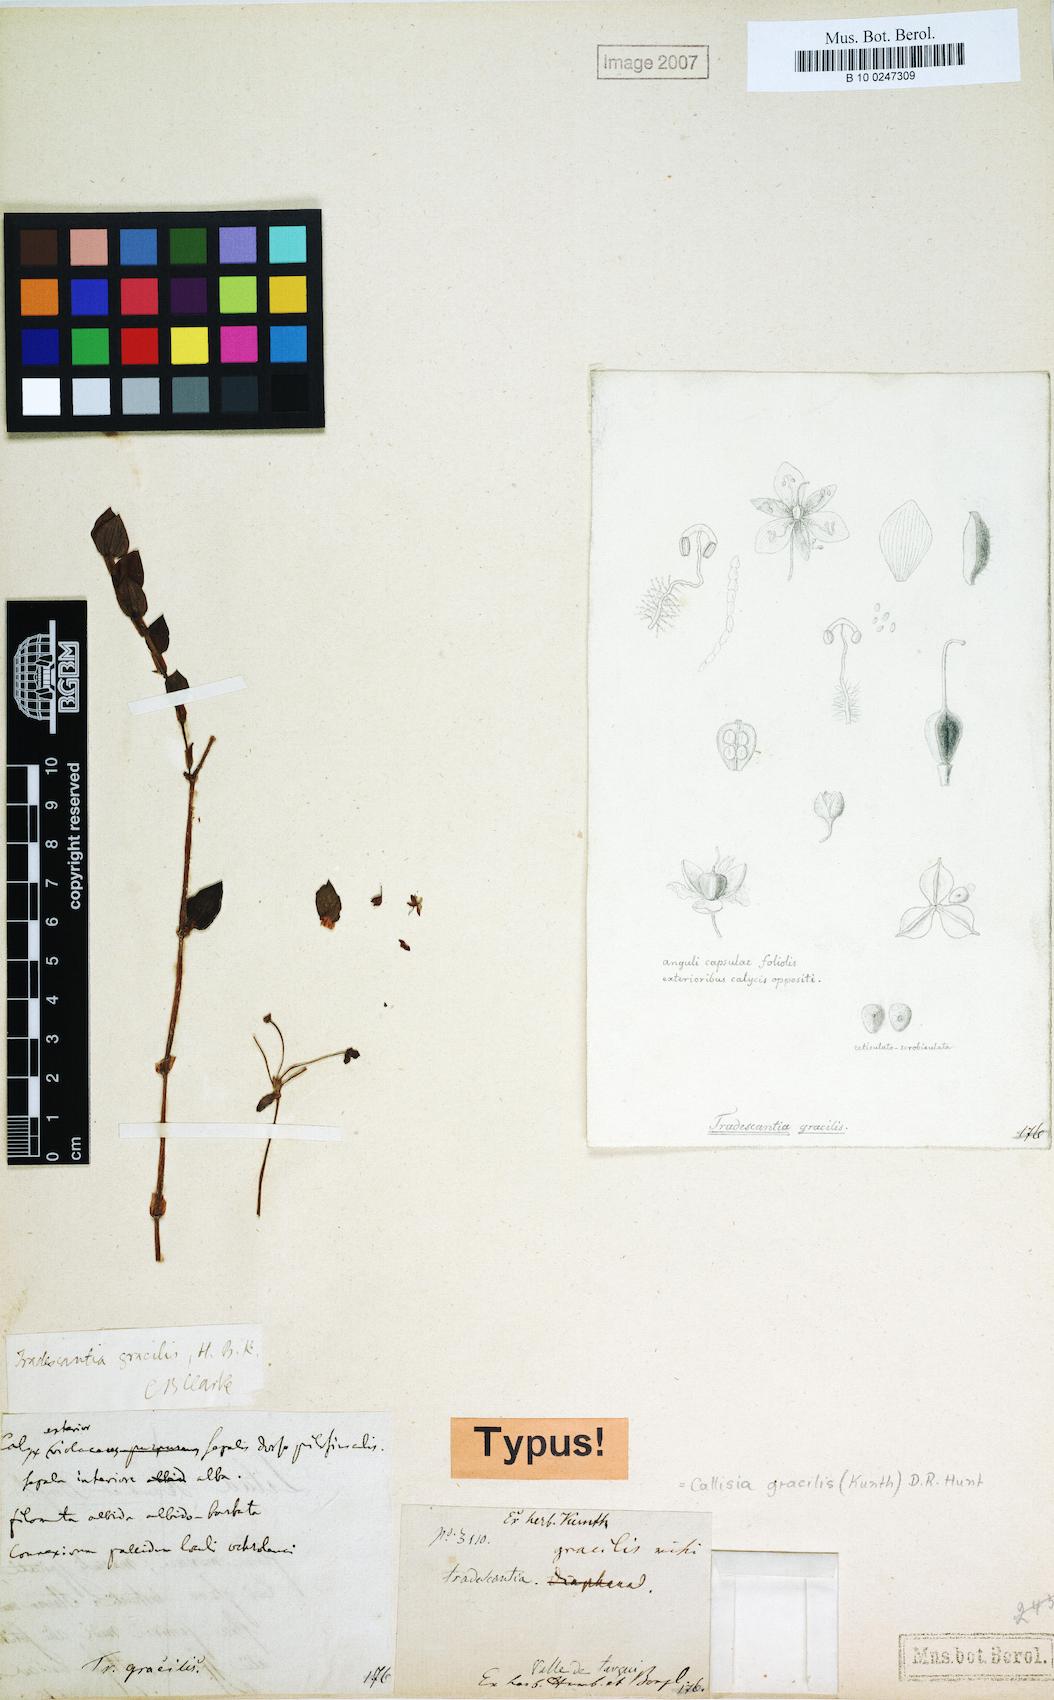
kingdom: Plantae
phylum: Tracheophyta
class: Liliopsida
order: Commelinales
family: Commelinaceae
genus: Callisia
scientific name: Callisia gracilis
